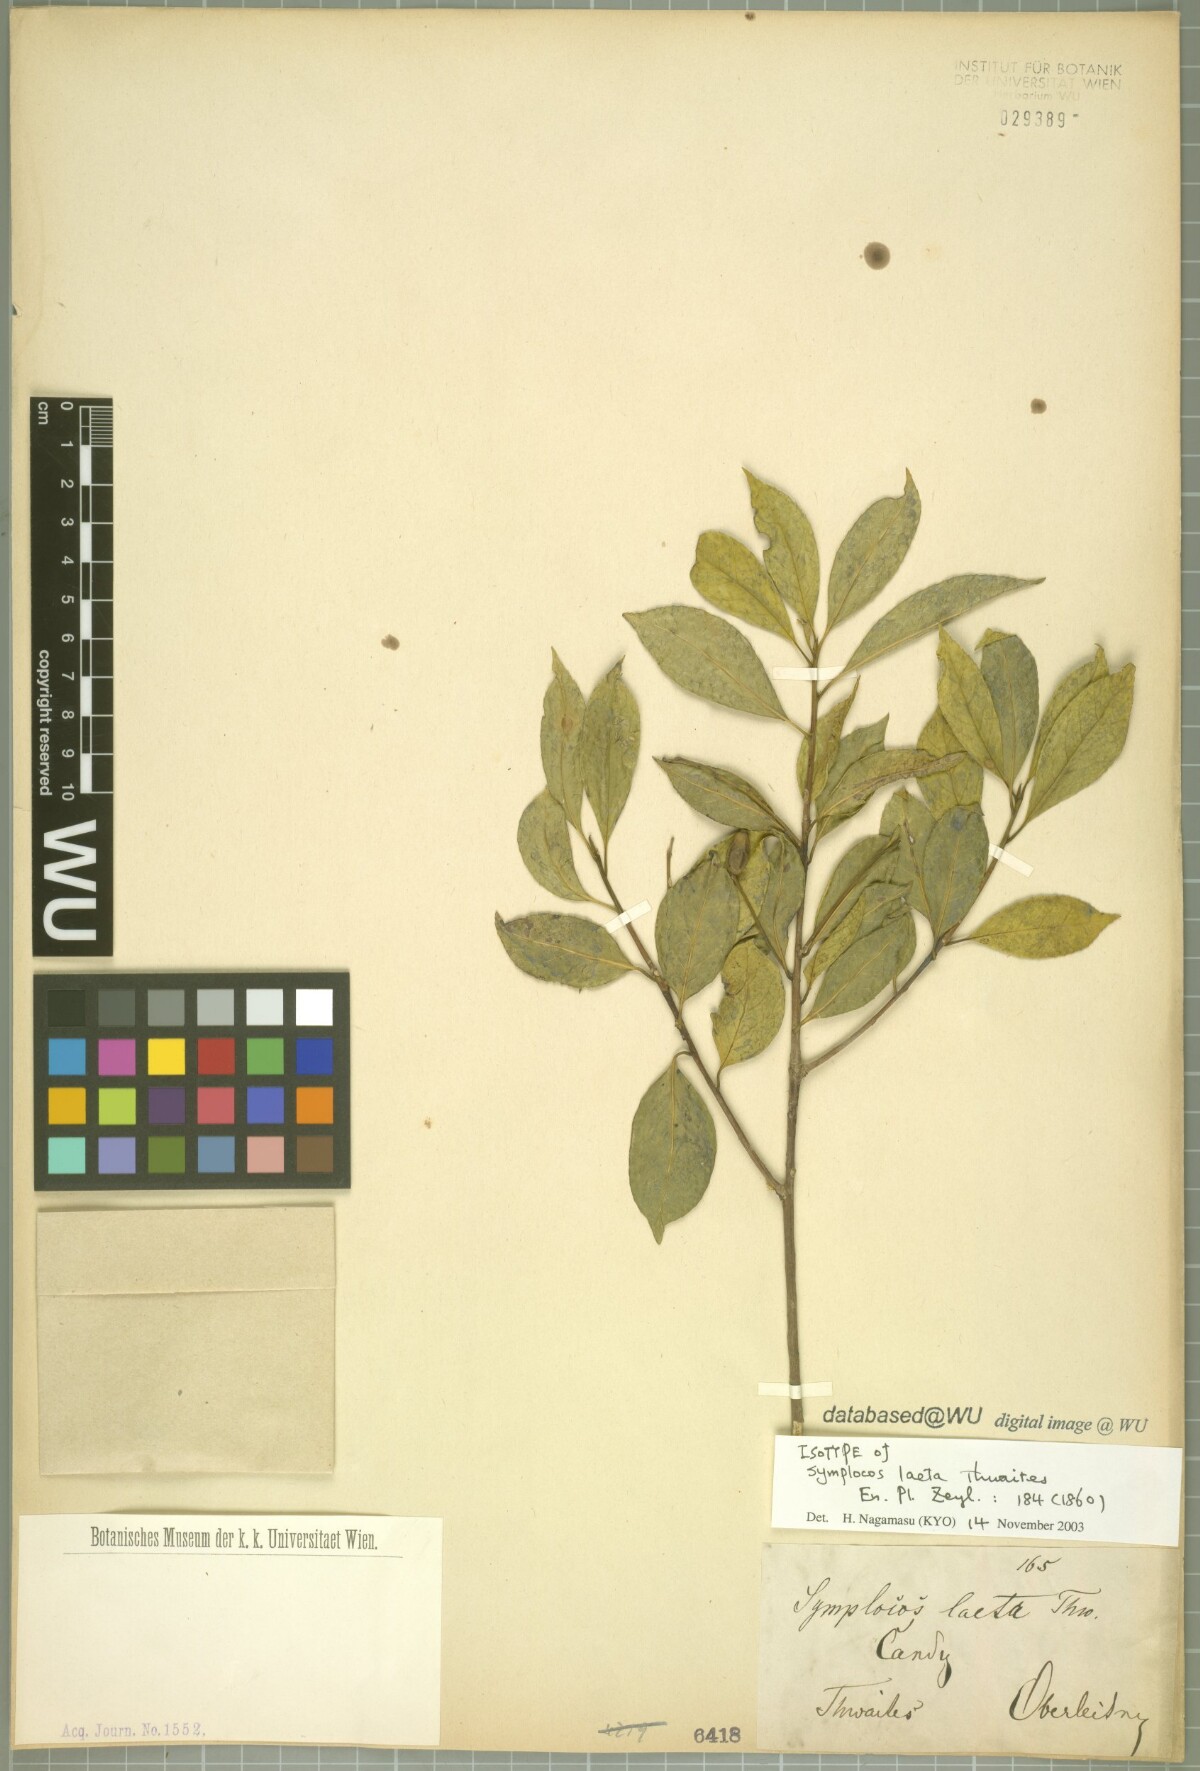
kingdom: Plantae
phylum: Tracheophyta
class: Magnoliopsida
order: Ericales
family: Symplocaceae
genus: Symplocos
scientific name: Symplocos obtusa
